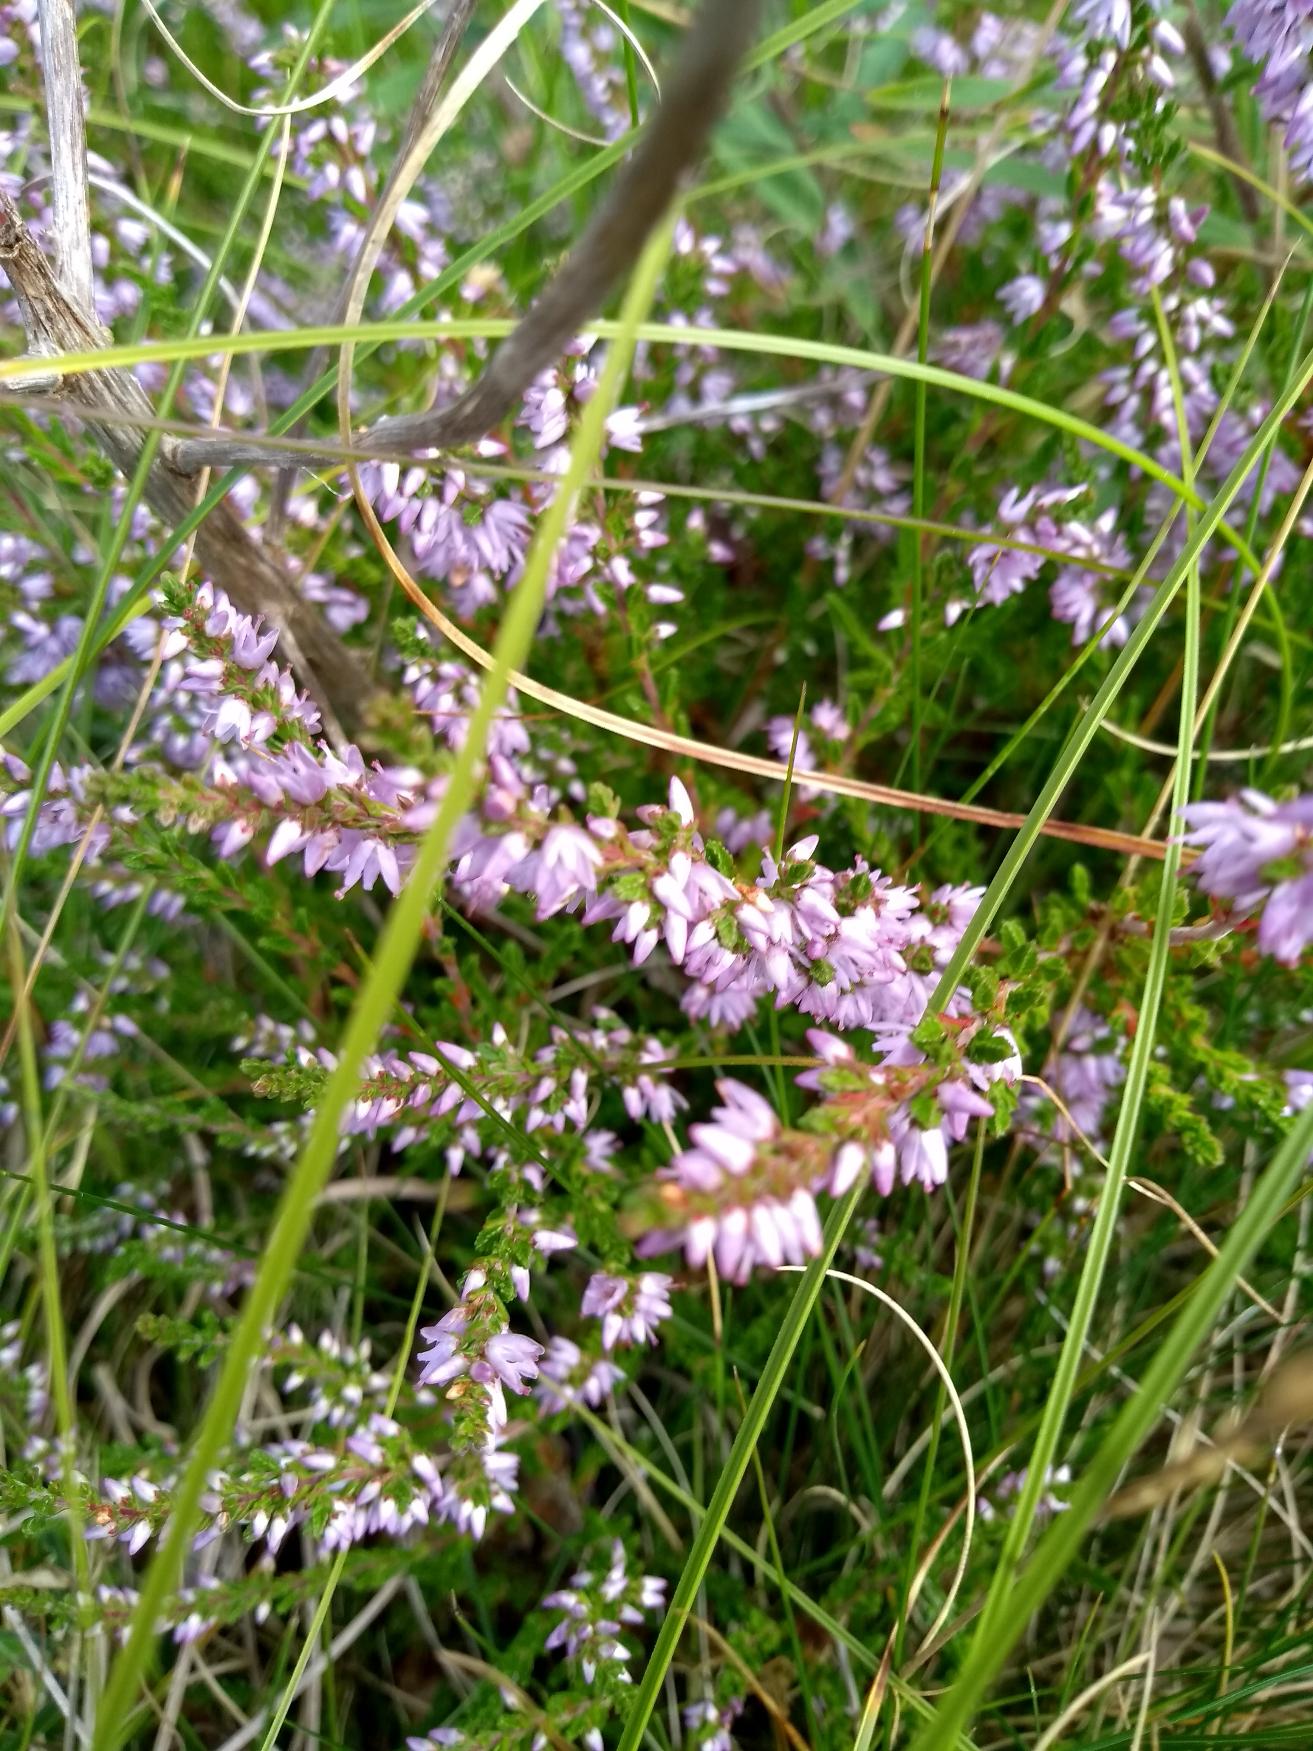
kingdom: Plantae
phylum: Tracheophyta
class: Magnoliopsida
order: Ericales
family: Ericaceae
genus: Calluna
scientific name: Calluna vulgaris
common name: Hedelyng
